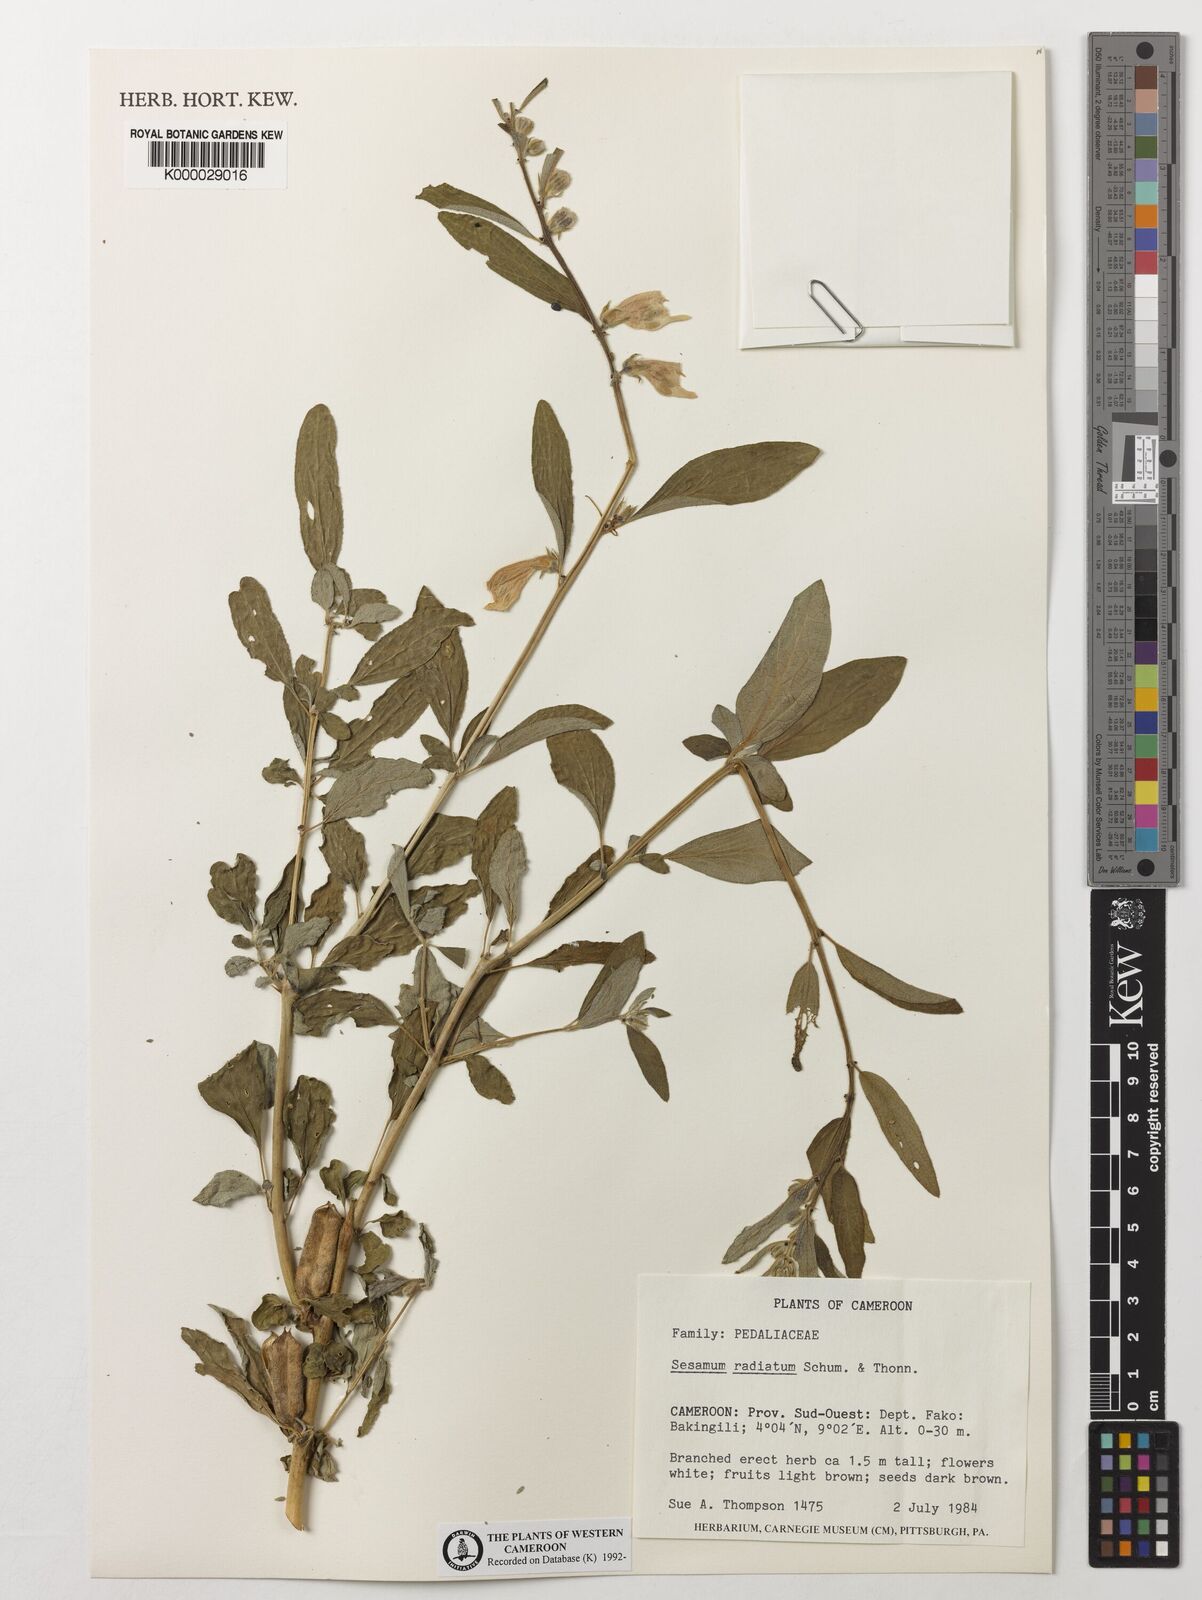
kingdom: Plantae
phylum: Tracheophyta
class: Magnoliopsida
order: Lamiales
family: Pedaliaceae
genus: Sesamum
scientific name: Sesamum
